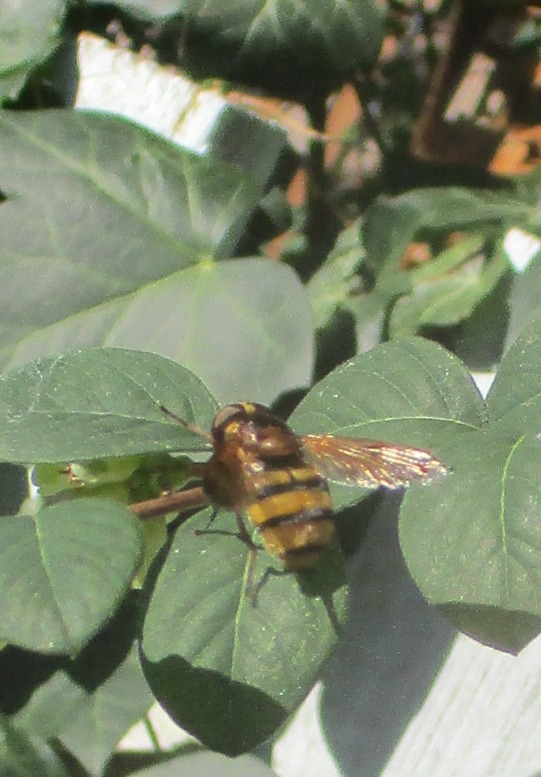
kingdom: Animalia
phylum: Arthropoda
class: Insecta
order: Diptera
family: Syrphidae
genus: Volucella
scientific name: Volucella inanis
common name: Gul humlesvirreflue
